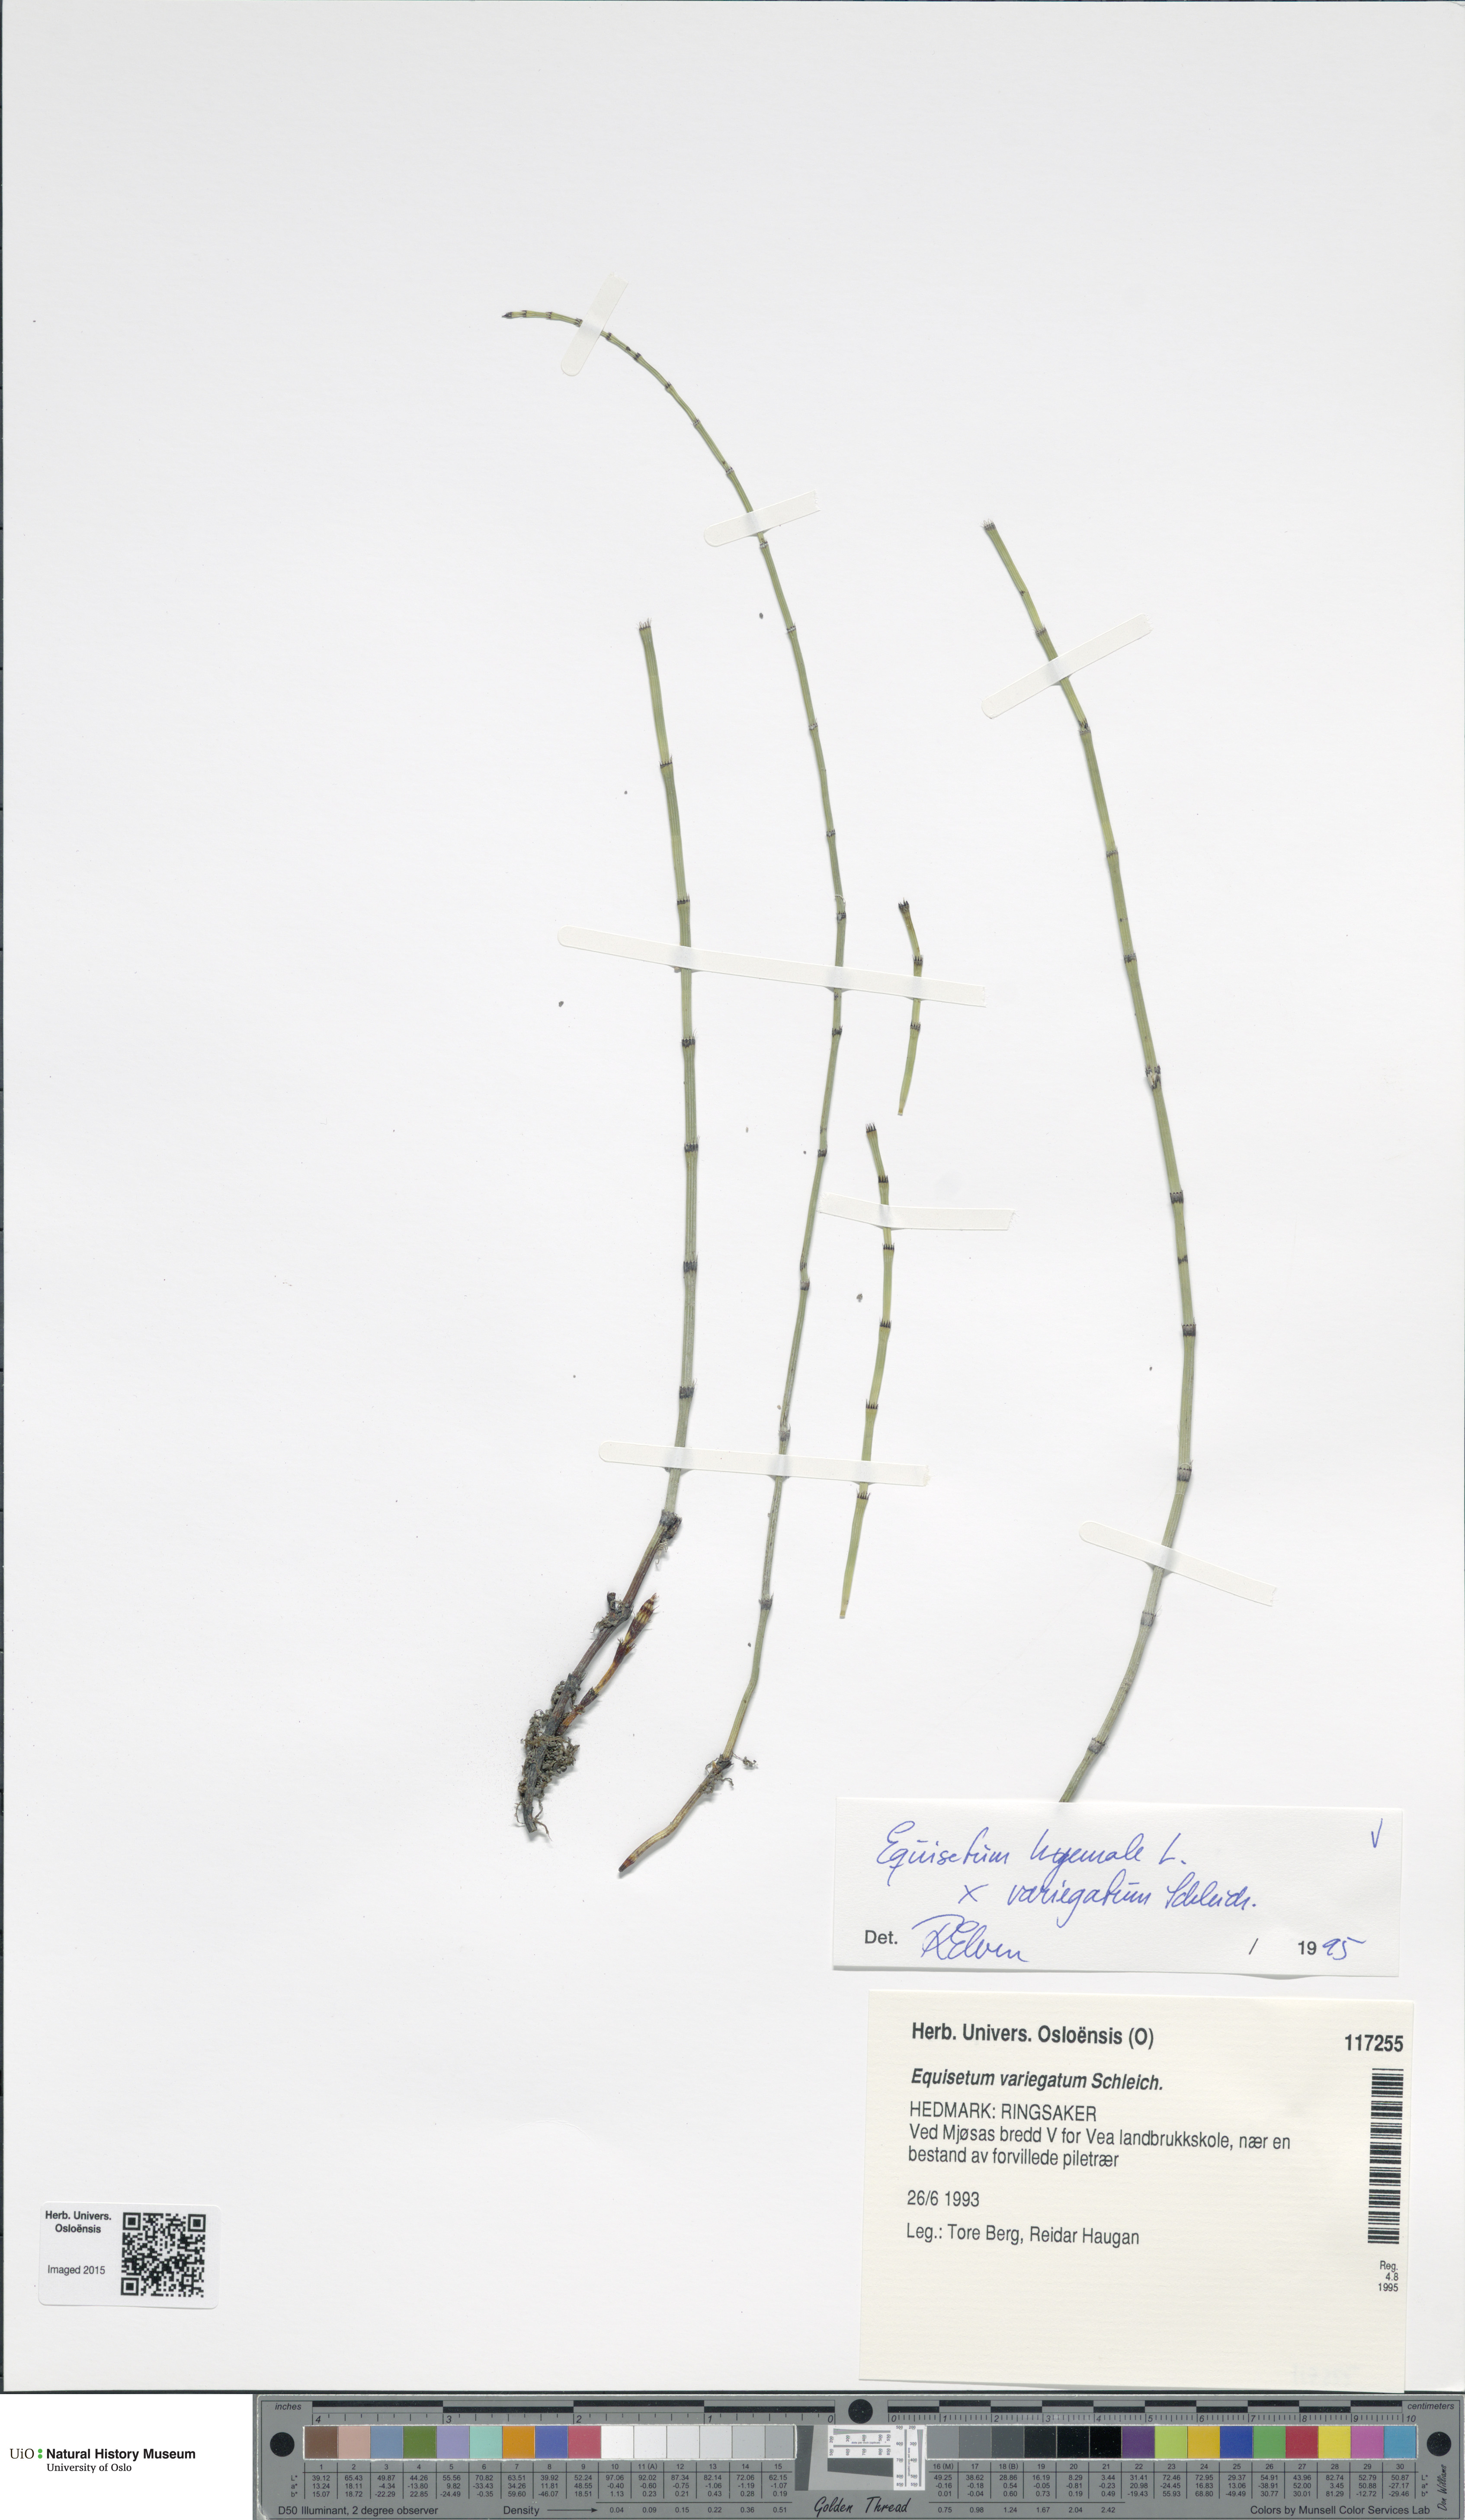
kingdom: Plantae
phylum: Tracheophyta
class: Polypodiopsida
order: Equisetales
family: Equisetaceae
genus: Equisetum
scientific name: Equisetum
